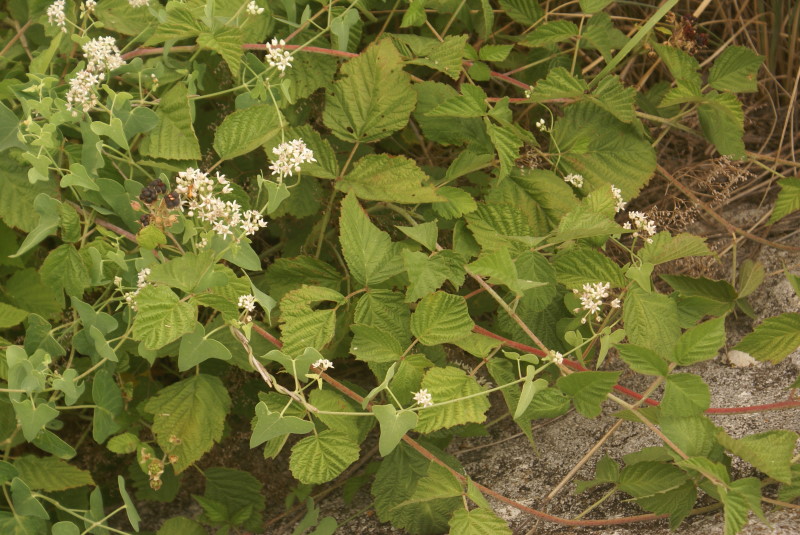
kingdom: Plantae
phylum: Tracheophyta
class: Magnoliopsida
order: Rosales
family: Rosaceae
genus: Rubus
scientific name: Rubus
